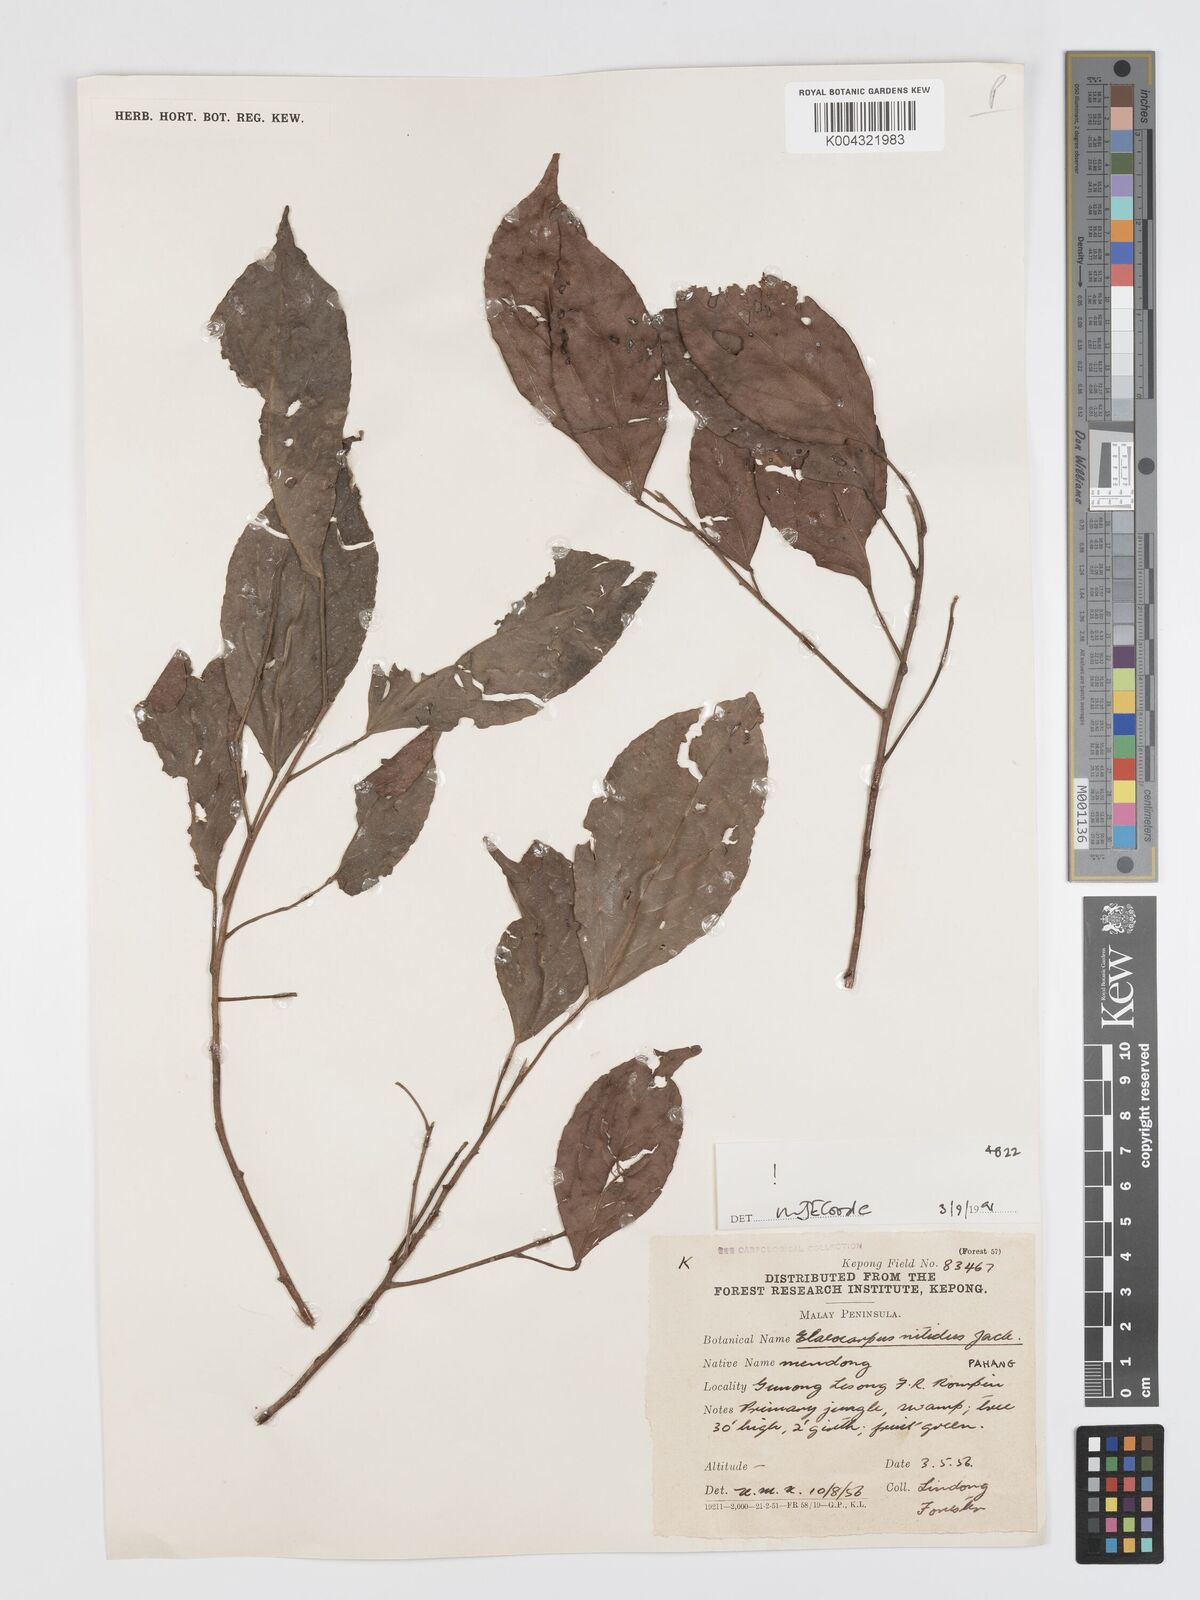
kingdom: Plantae
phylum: Tracheophyta
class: Magnoliopsida
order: Oxalidales
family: Elaeocarpaceae
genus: Elaeocarpus
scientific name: Elaeocarpus nitidus
